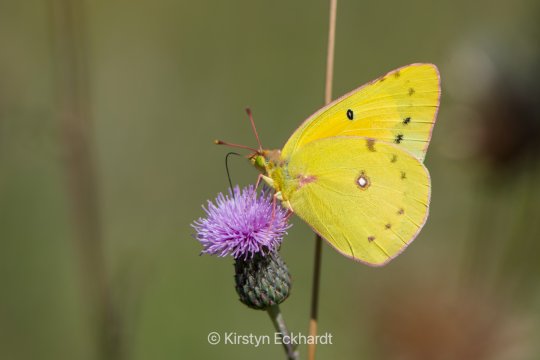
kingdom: Animalia
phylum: Arthropoda
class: Insecta
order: Lepidoptera
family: Pieridae
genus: Colias
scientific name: Colias eurytheme
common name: Orange Sulphur
